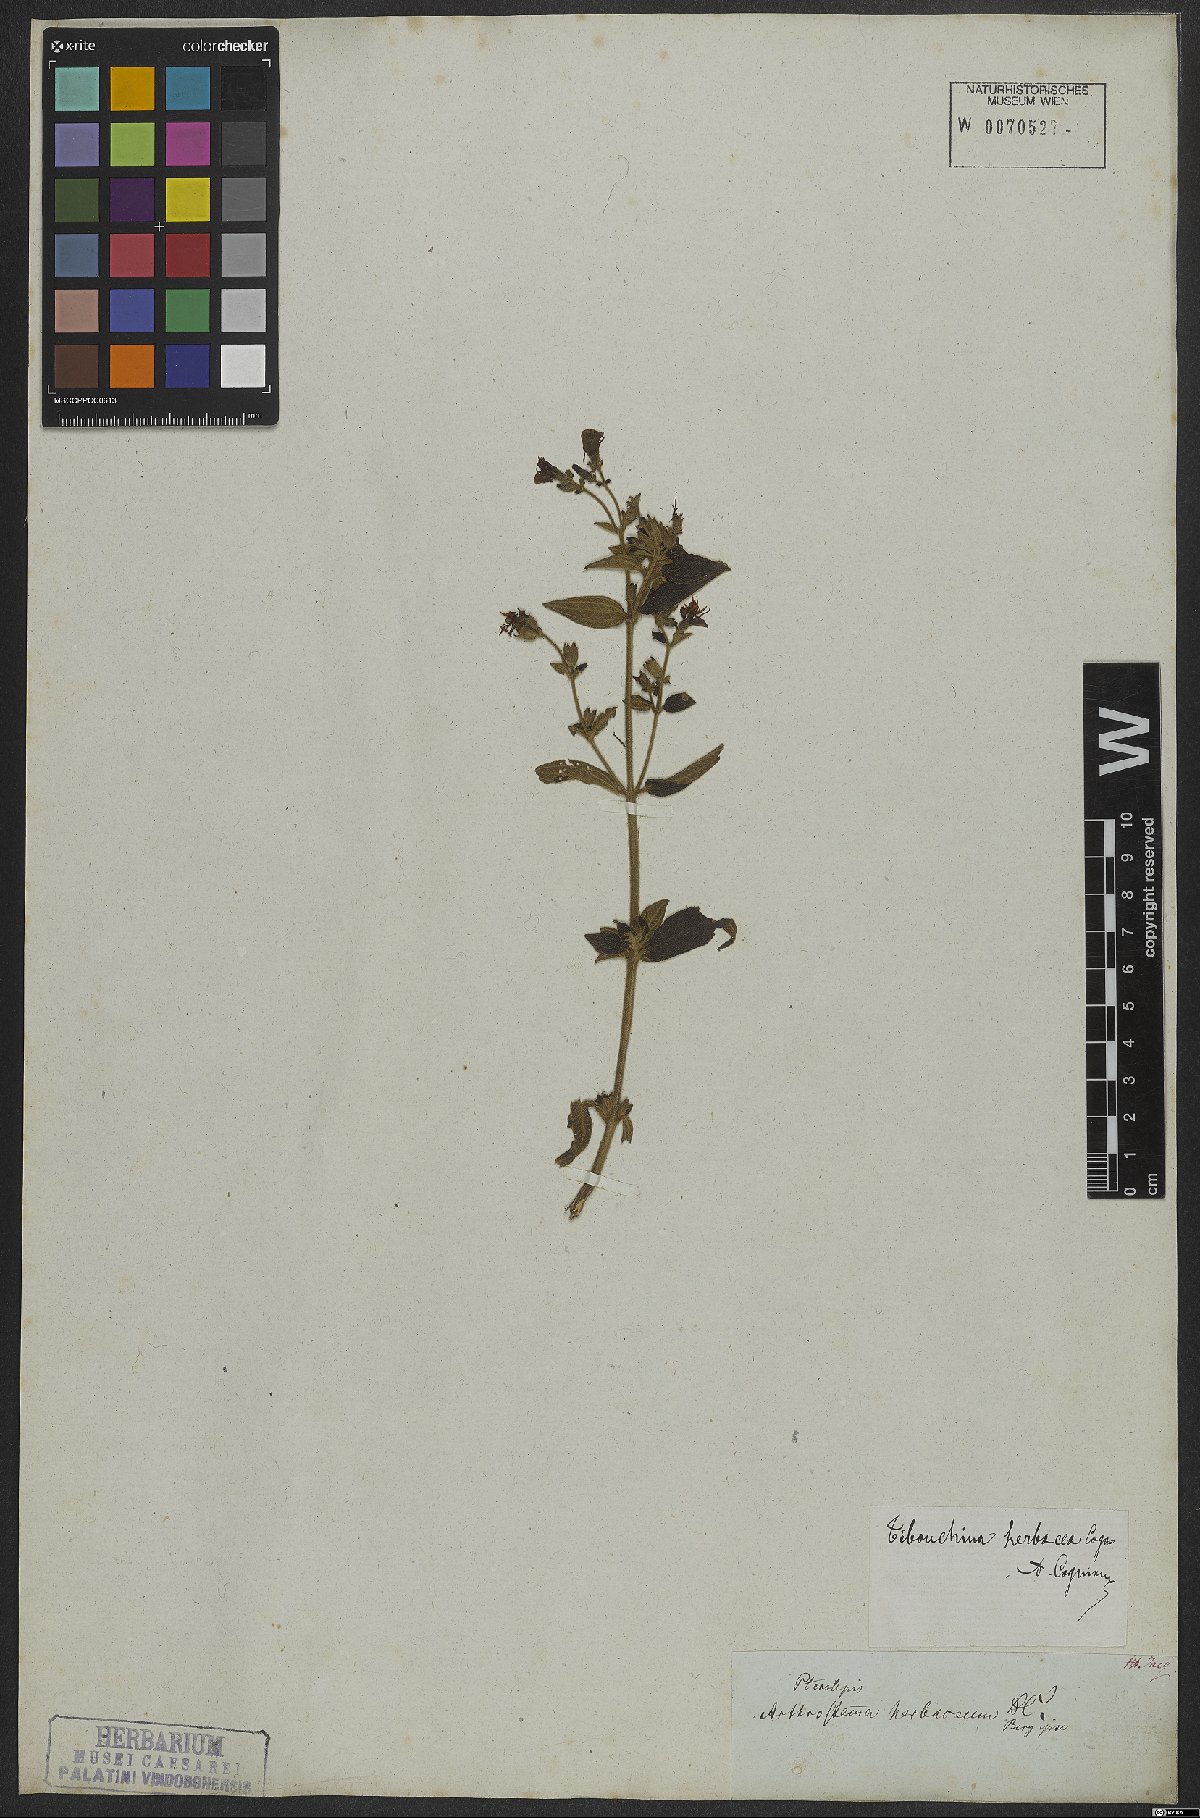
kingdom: Plantae
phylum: Tracheophyta
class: Magnoliopsida
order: Myrtales
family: Melastomataceae
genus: Chaetogastra
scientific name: Chaetogastra herbacea
